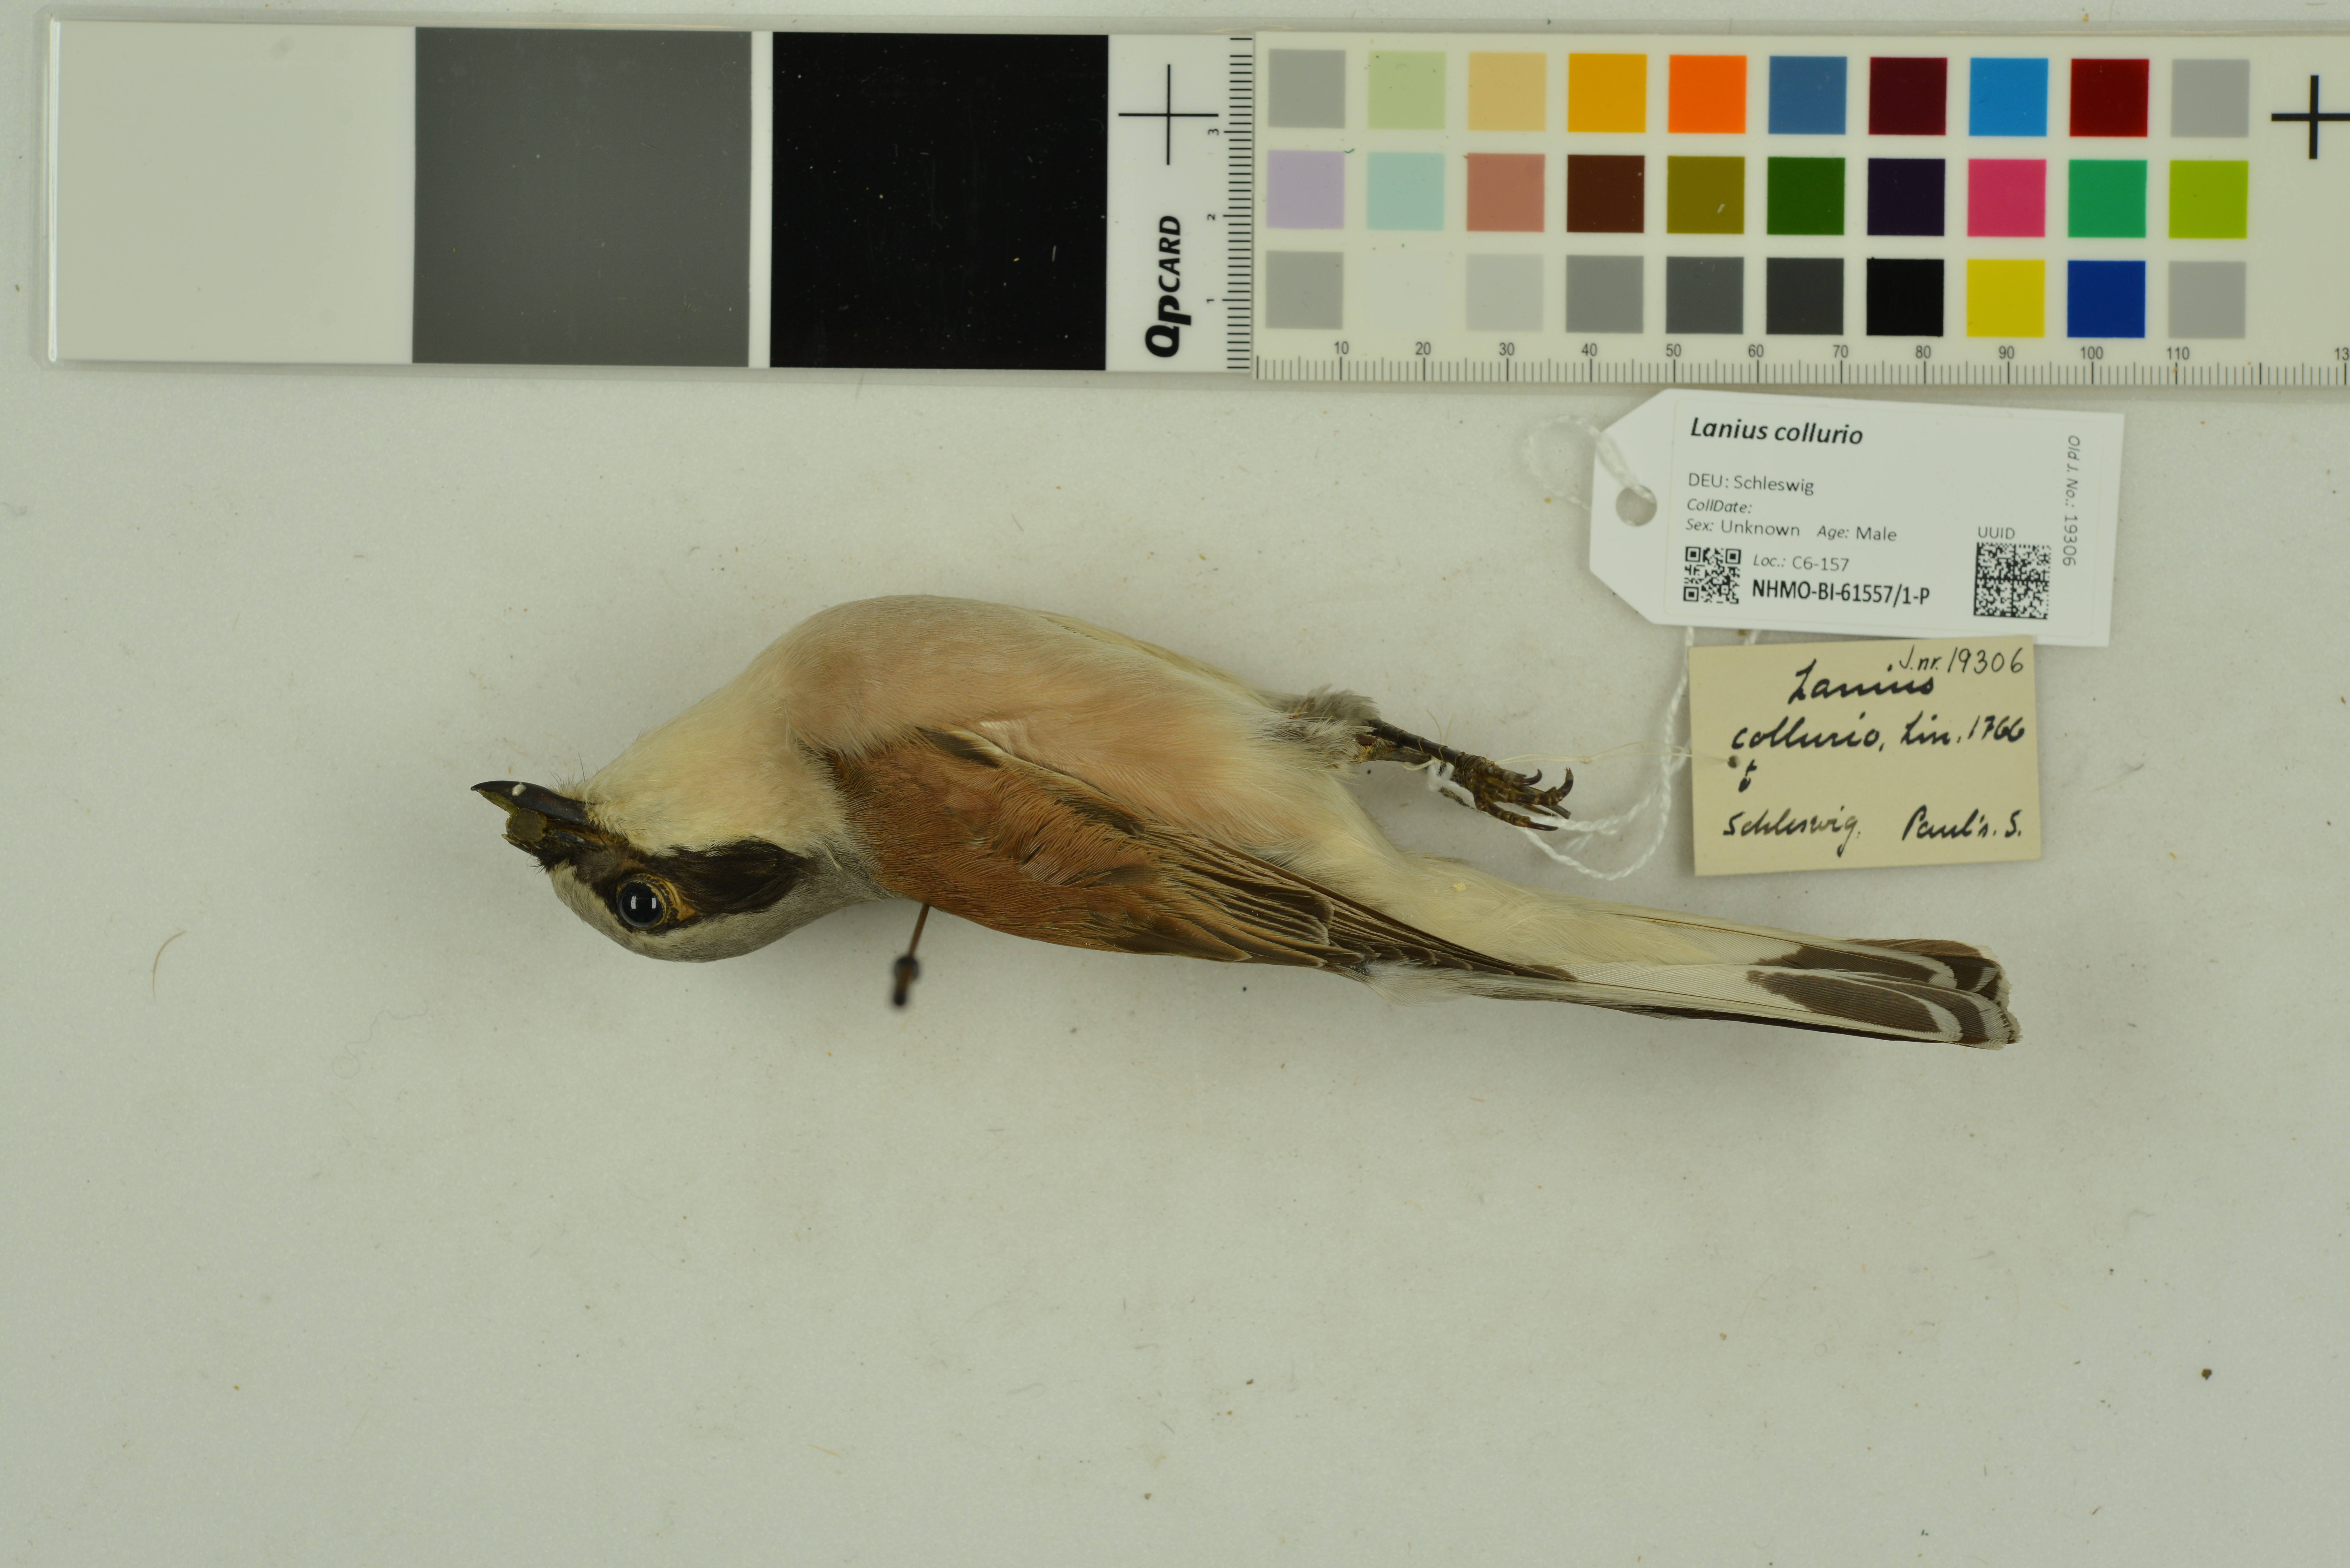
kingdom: Animalia
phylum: Chordata
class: Aves
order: Passeriformes
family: Laniidae
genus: Lanius
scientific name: Lanius collurio
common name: Red-backed shrike
